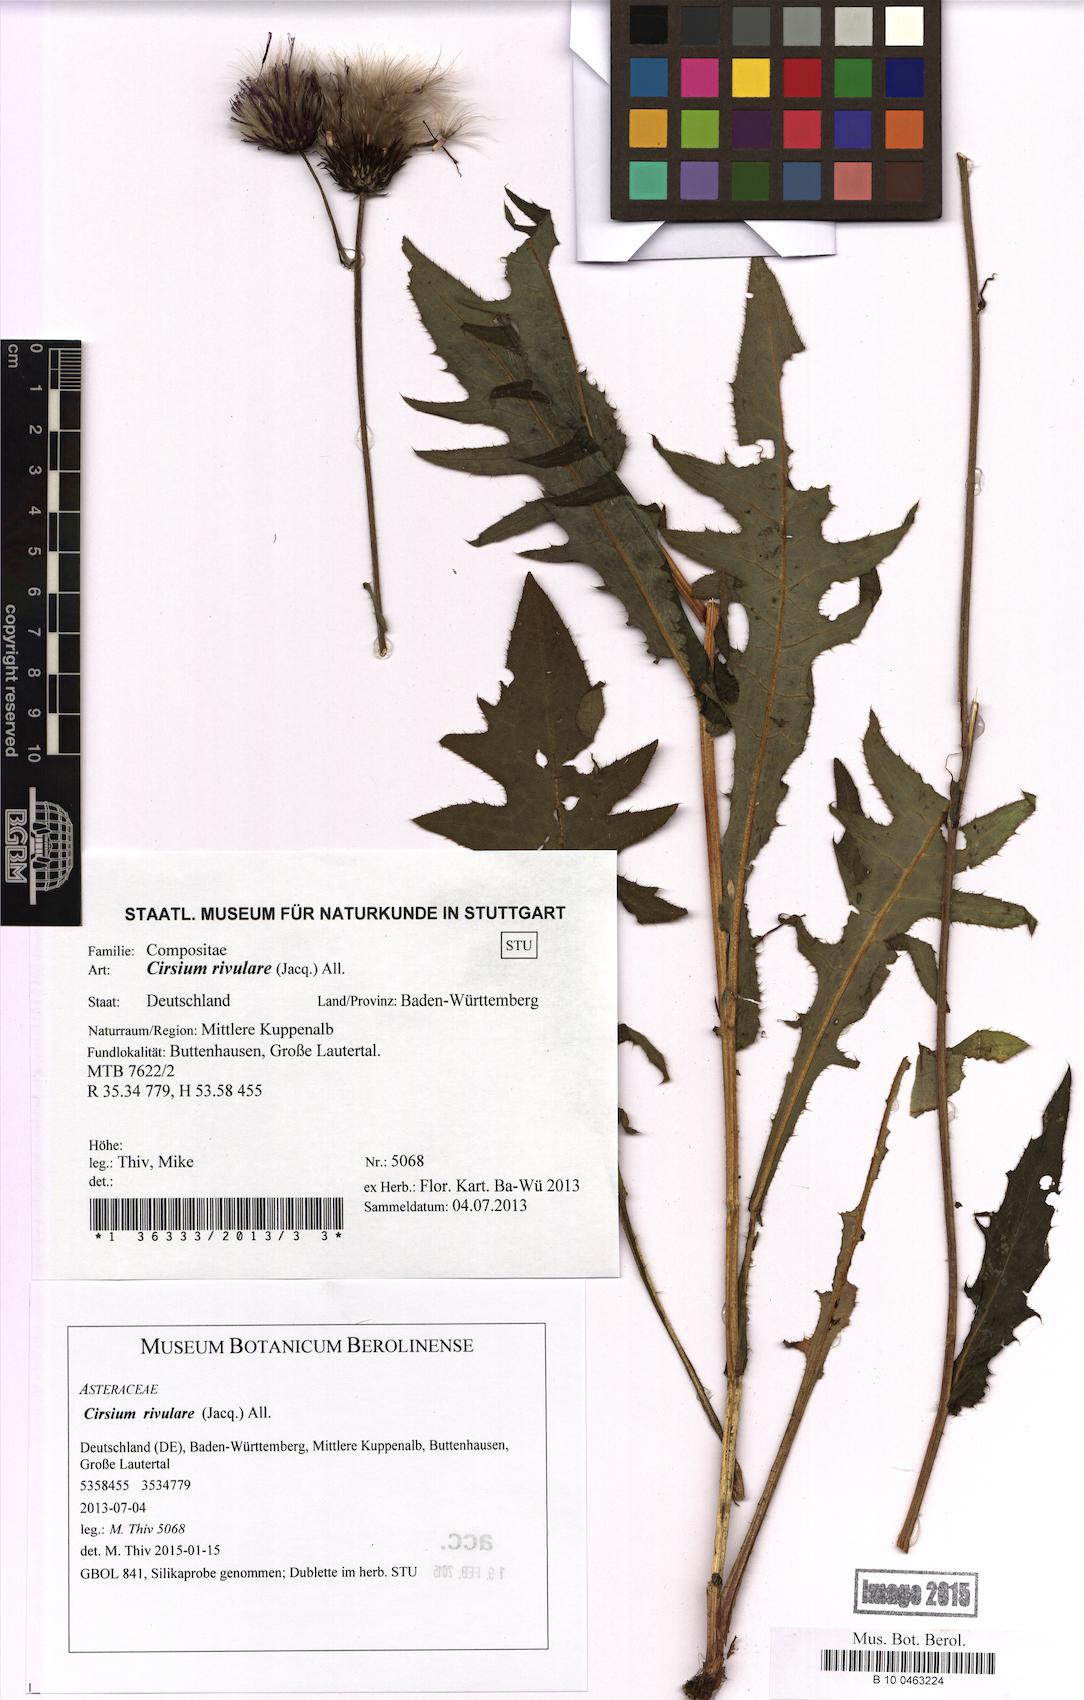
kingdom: Plantae
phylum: Tracheophyta
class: Magnoliopsida
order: Asterales
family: Asteraceae
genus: Cirsium
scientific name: Cirsium rivulare
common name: Brook thistle
